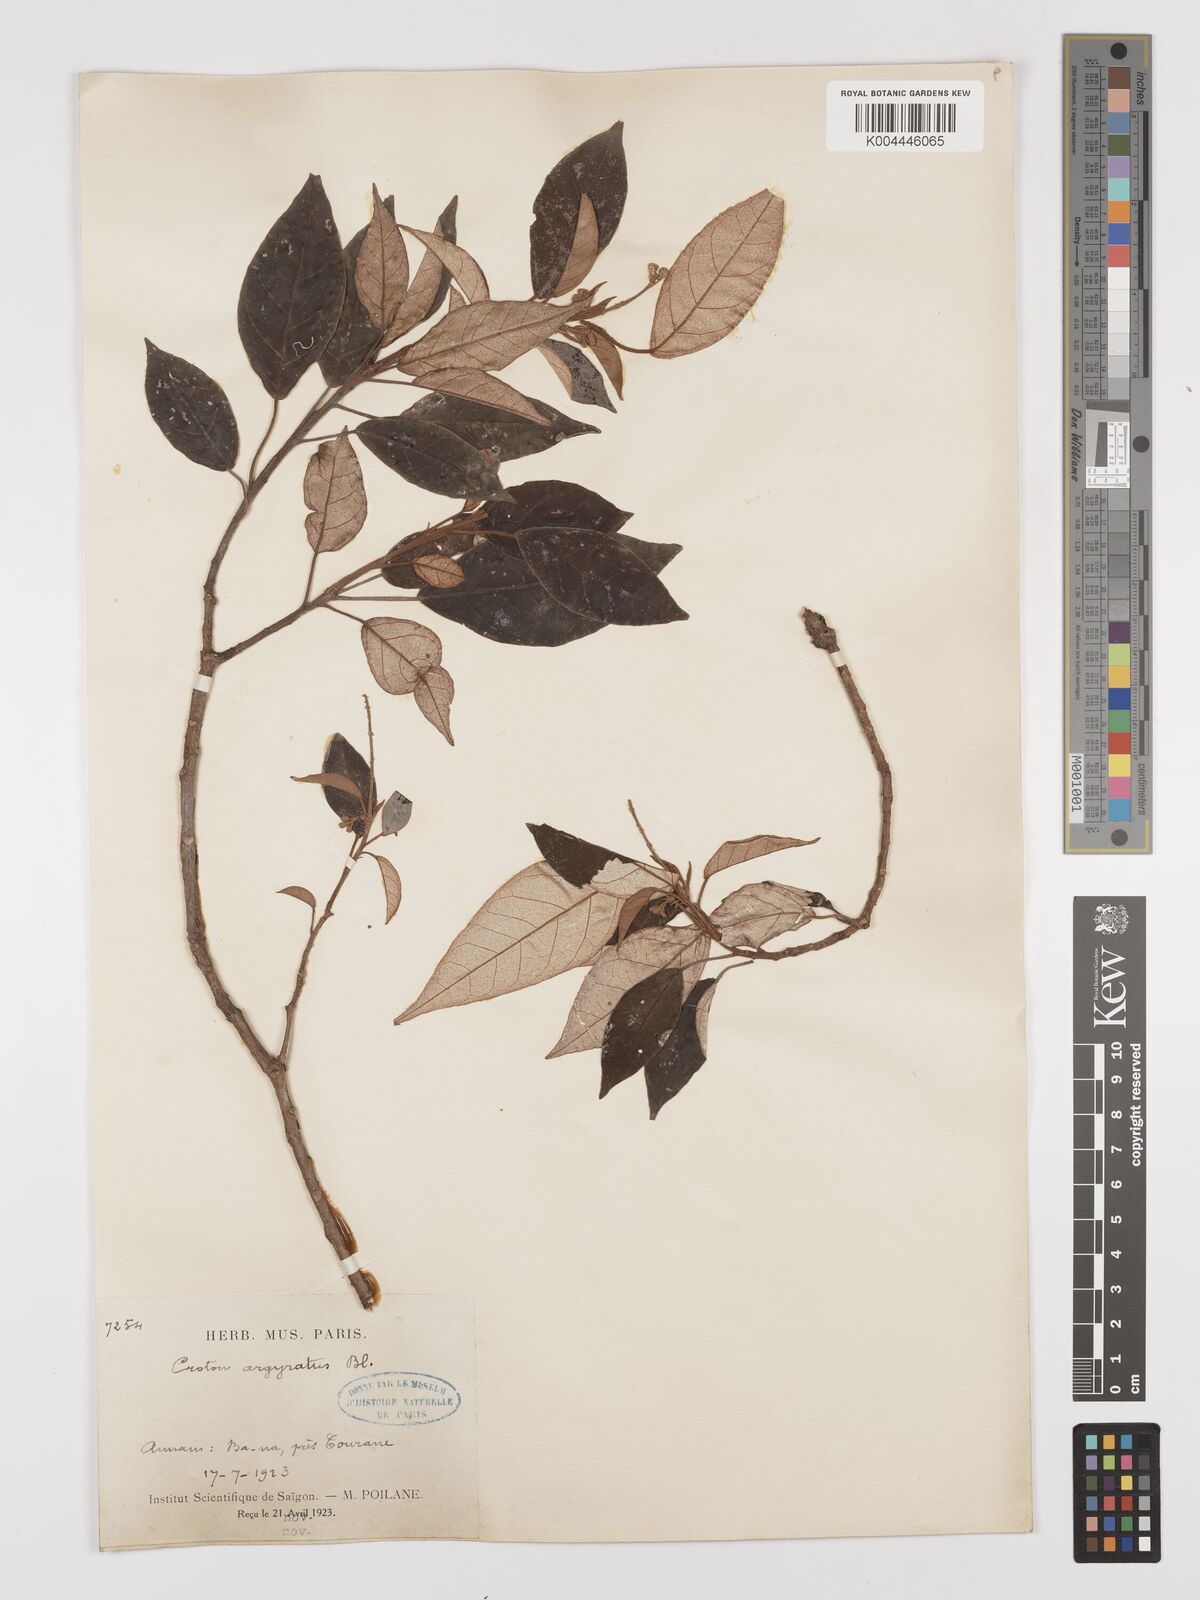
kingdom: Plantae
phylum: Tracheophyta
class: Magnoliopsida
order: Malpighiales
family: Euphorbiaceae
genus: Croton
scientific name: Croton argyratus
